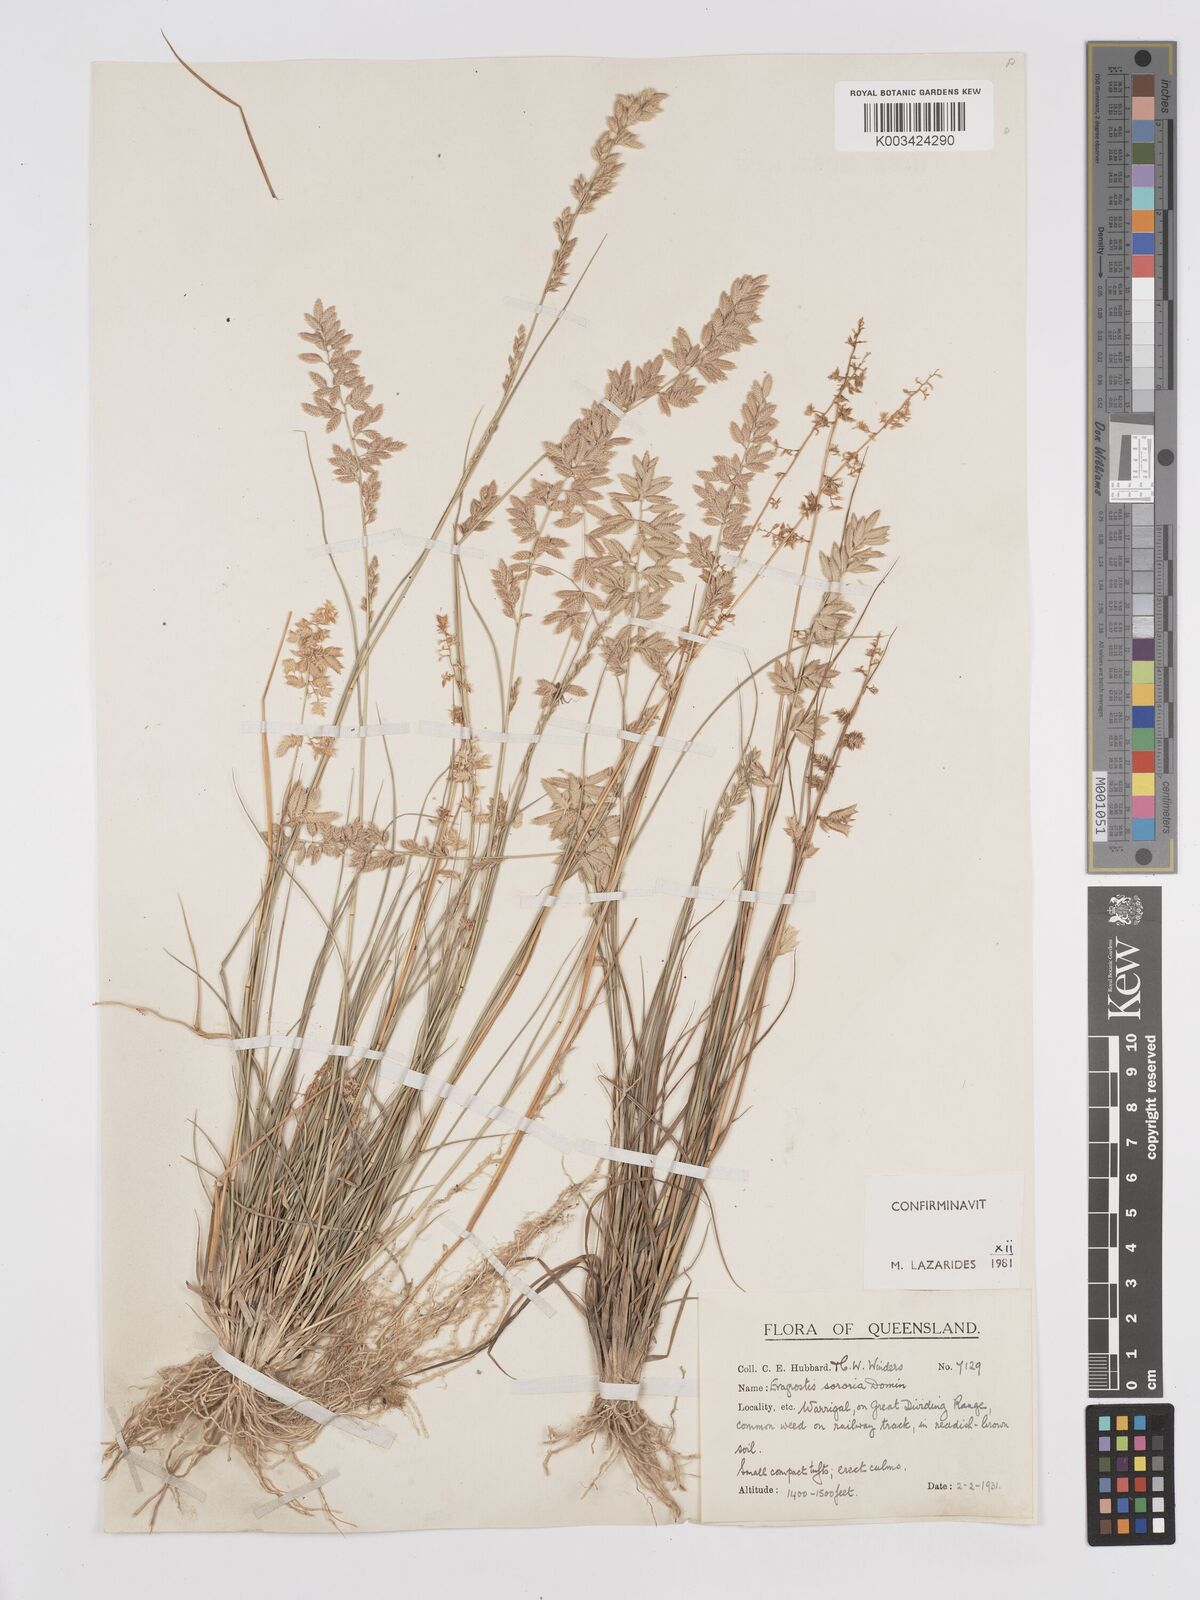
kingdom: Plantae
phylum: Tracheophyta
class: Liliopsida
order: Poales
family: Poaceae
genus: Eragrostis
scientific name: Eragrostis sororia
